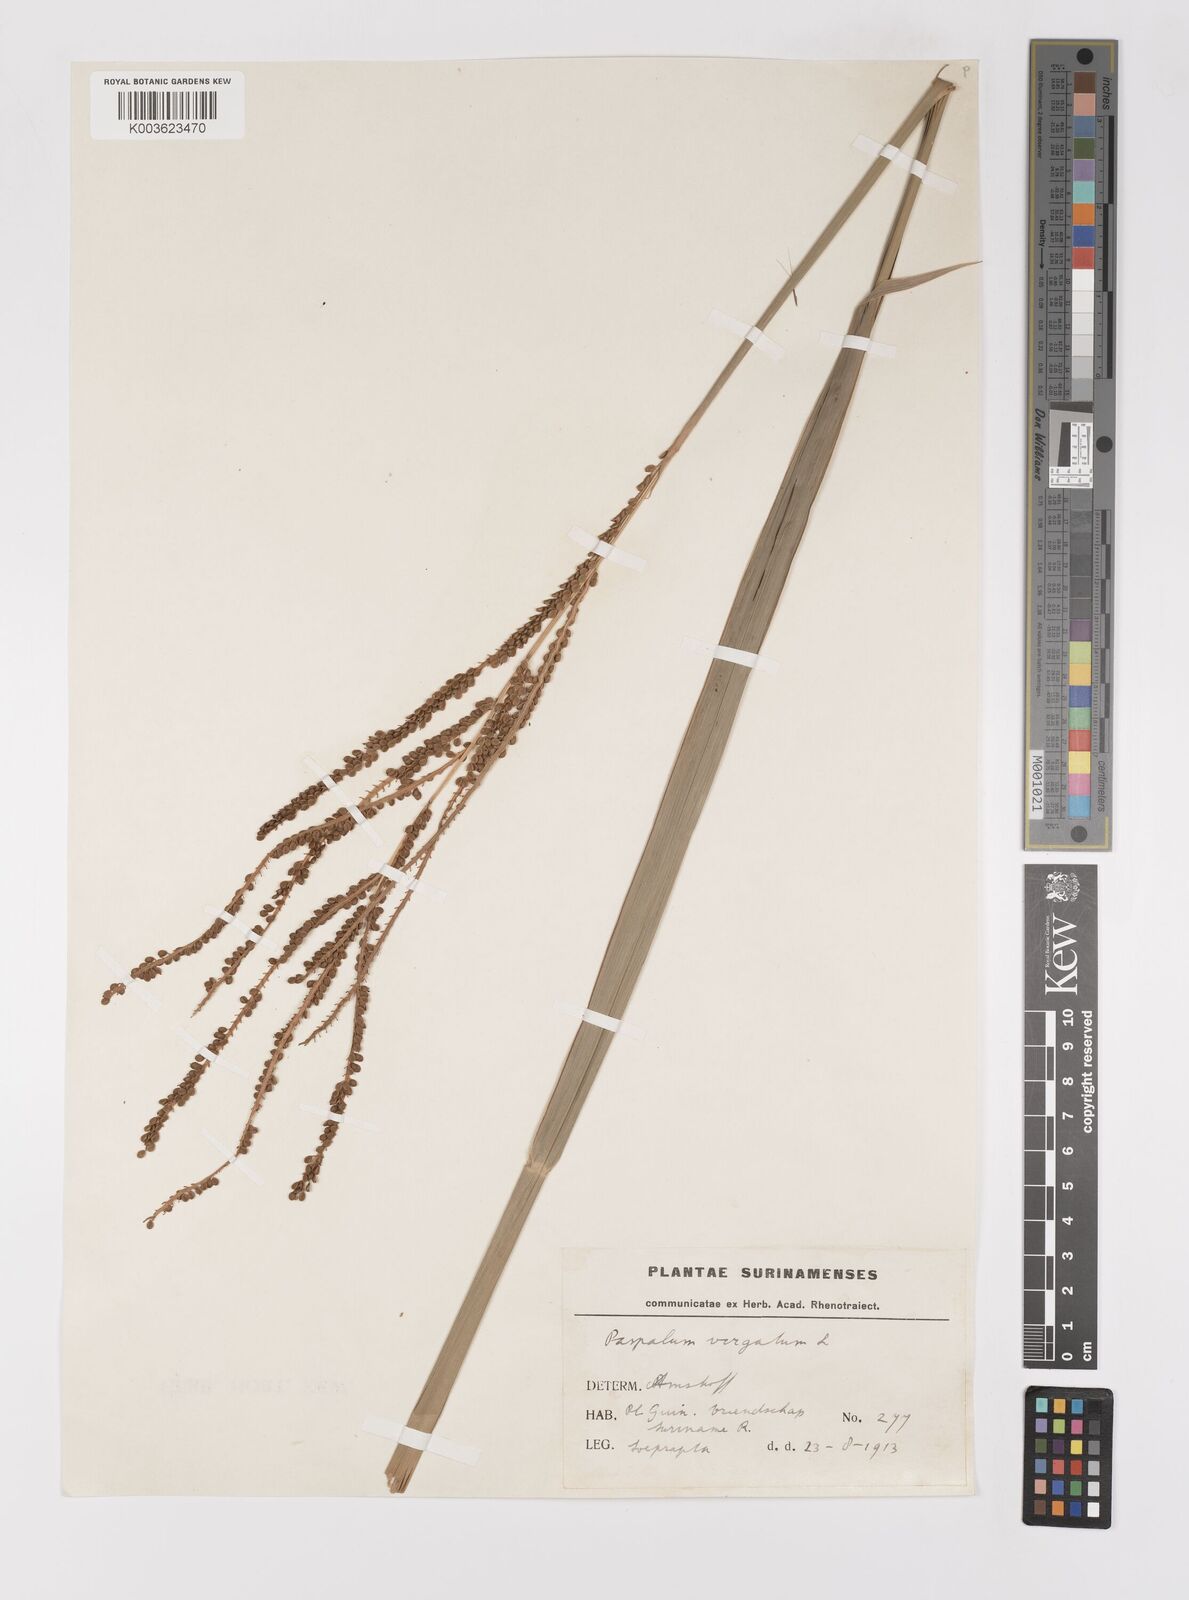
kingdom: Plantae
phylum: Tracheophyta
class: Liliopsida
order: Poales
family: Poaceae
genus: Paspalum
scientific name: Paspalum virgatum
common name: Talquezal
